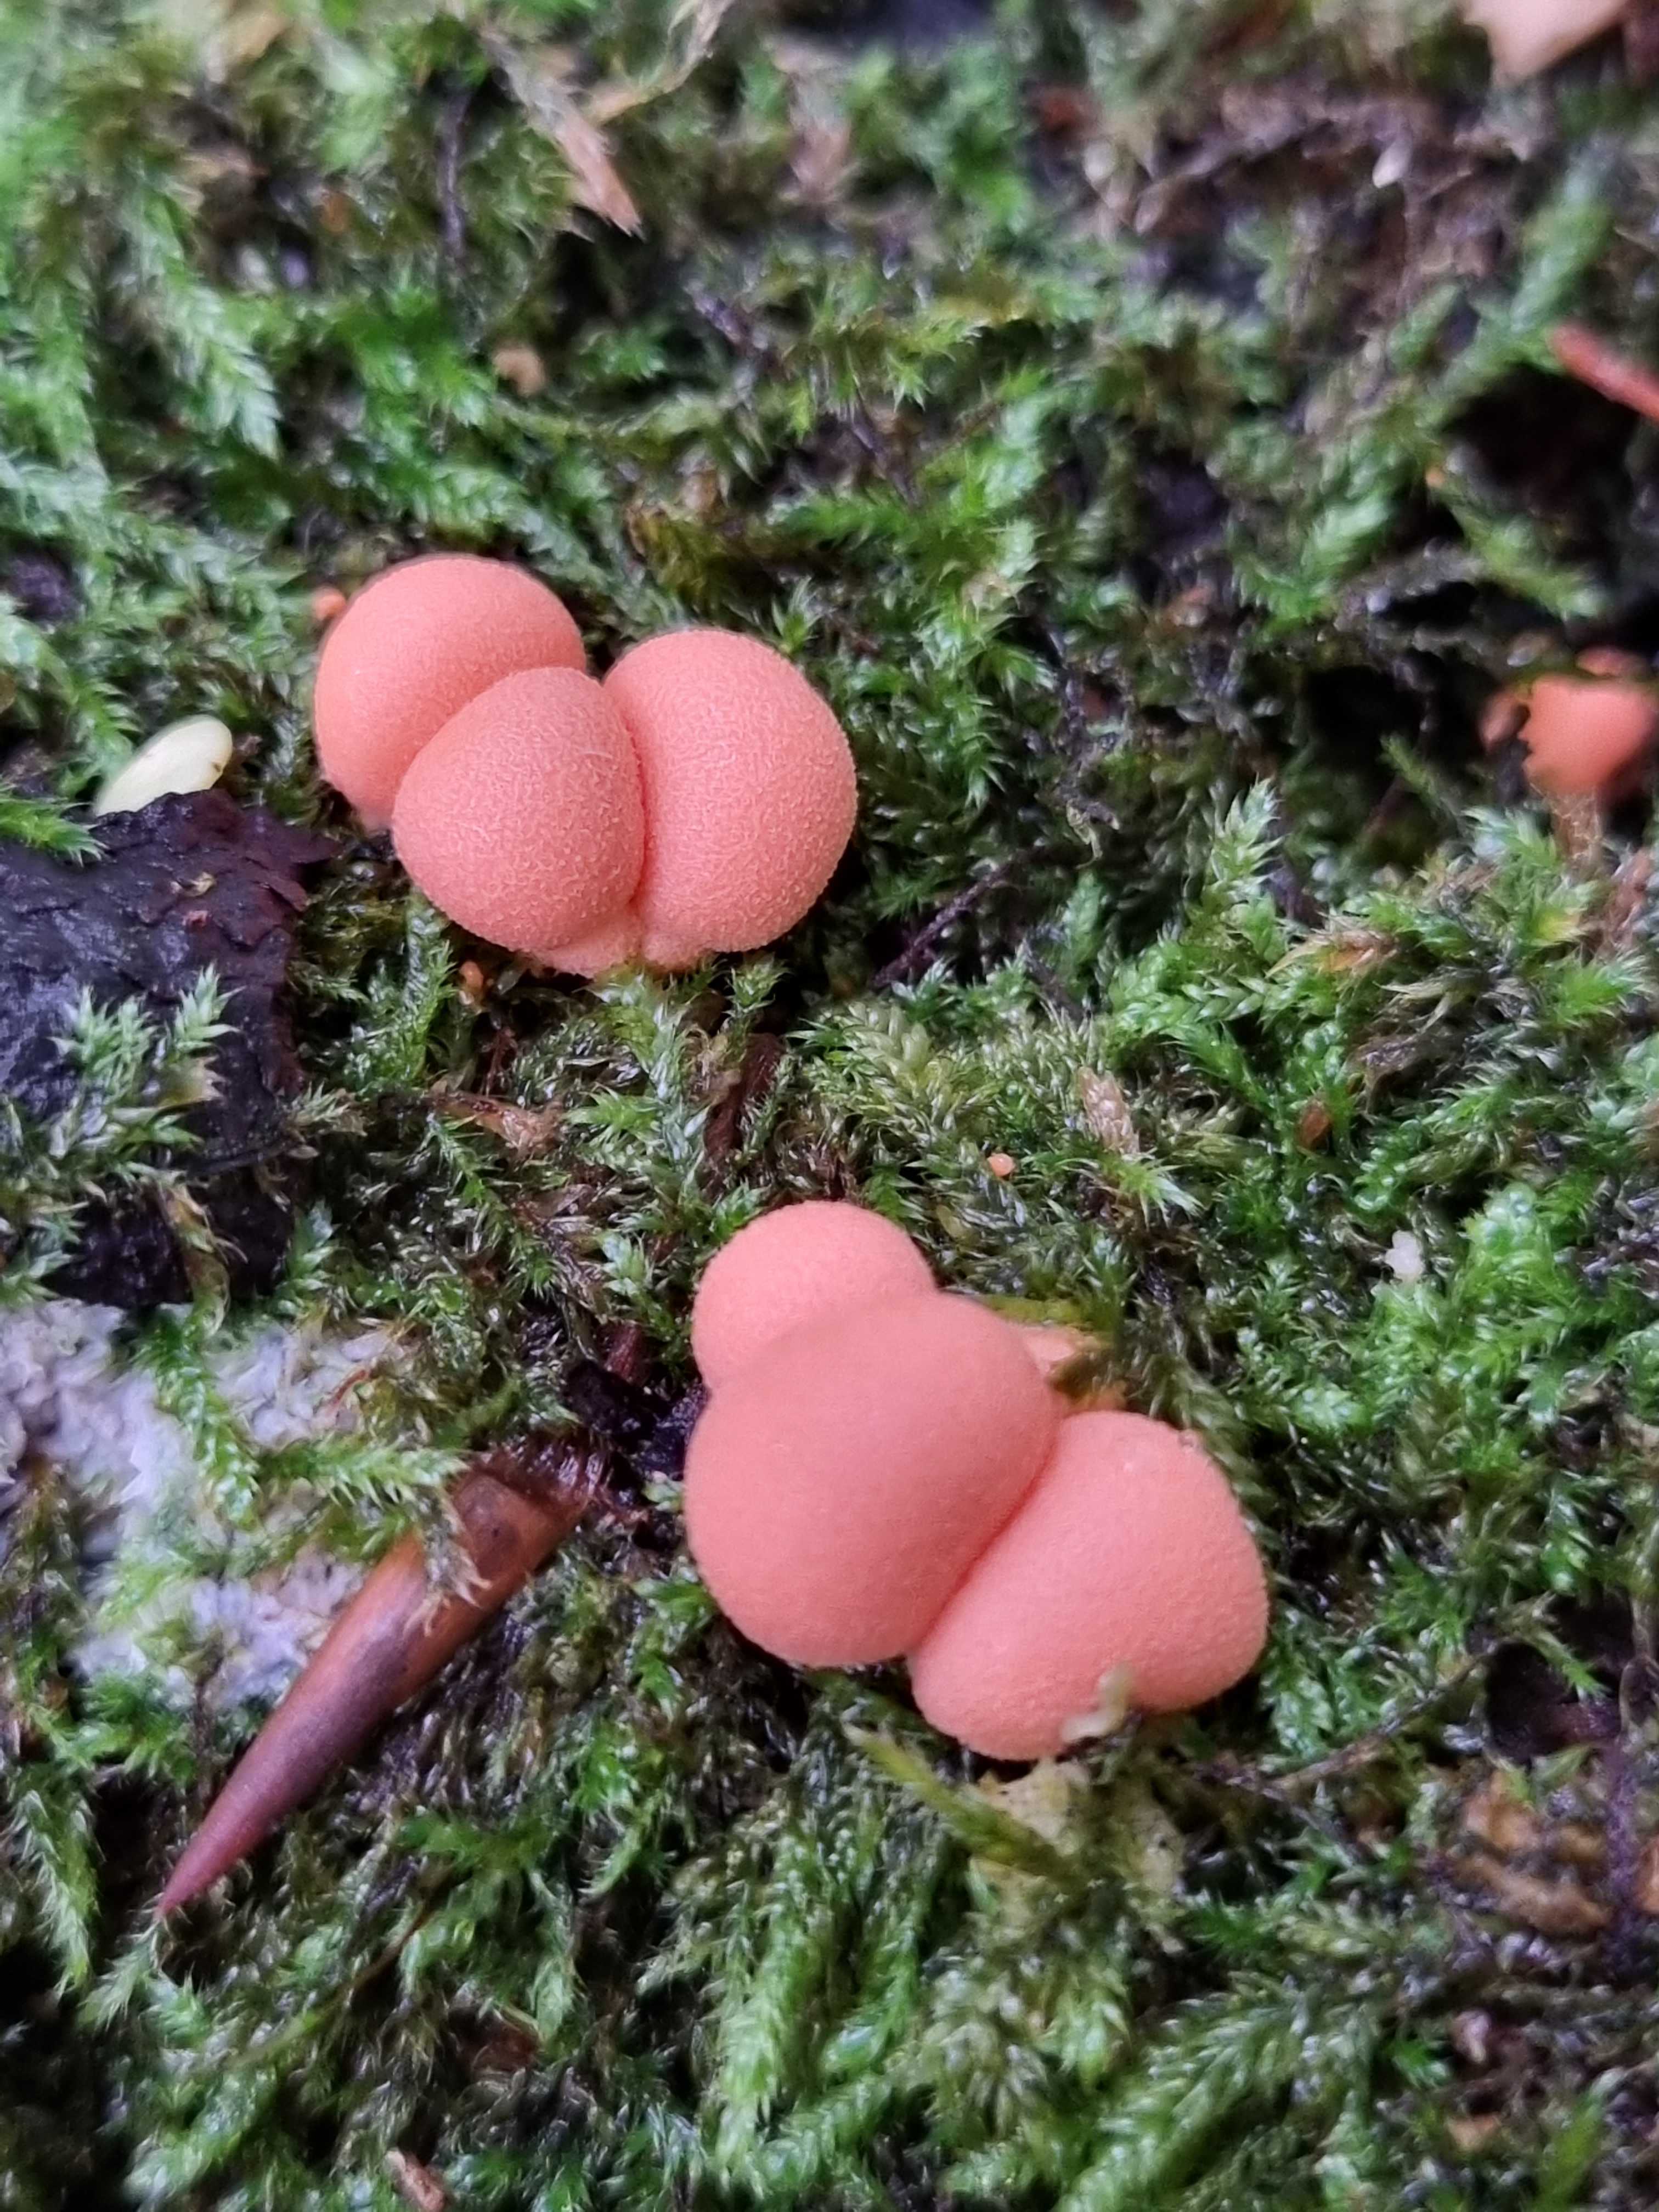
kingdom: Protozoa
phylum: Mycetozoa
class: Myxomycetes
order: Cribrariales
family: Tubiferaceae
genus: Lycogala
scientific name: Lycogala epidendrum
